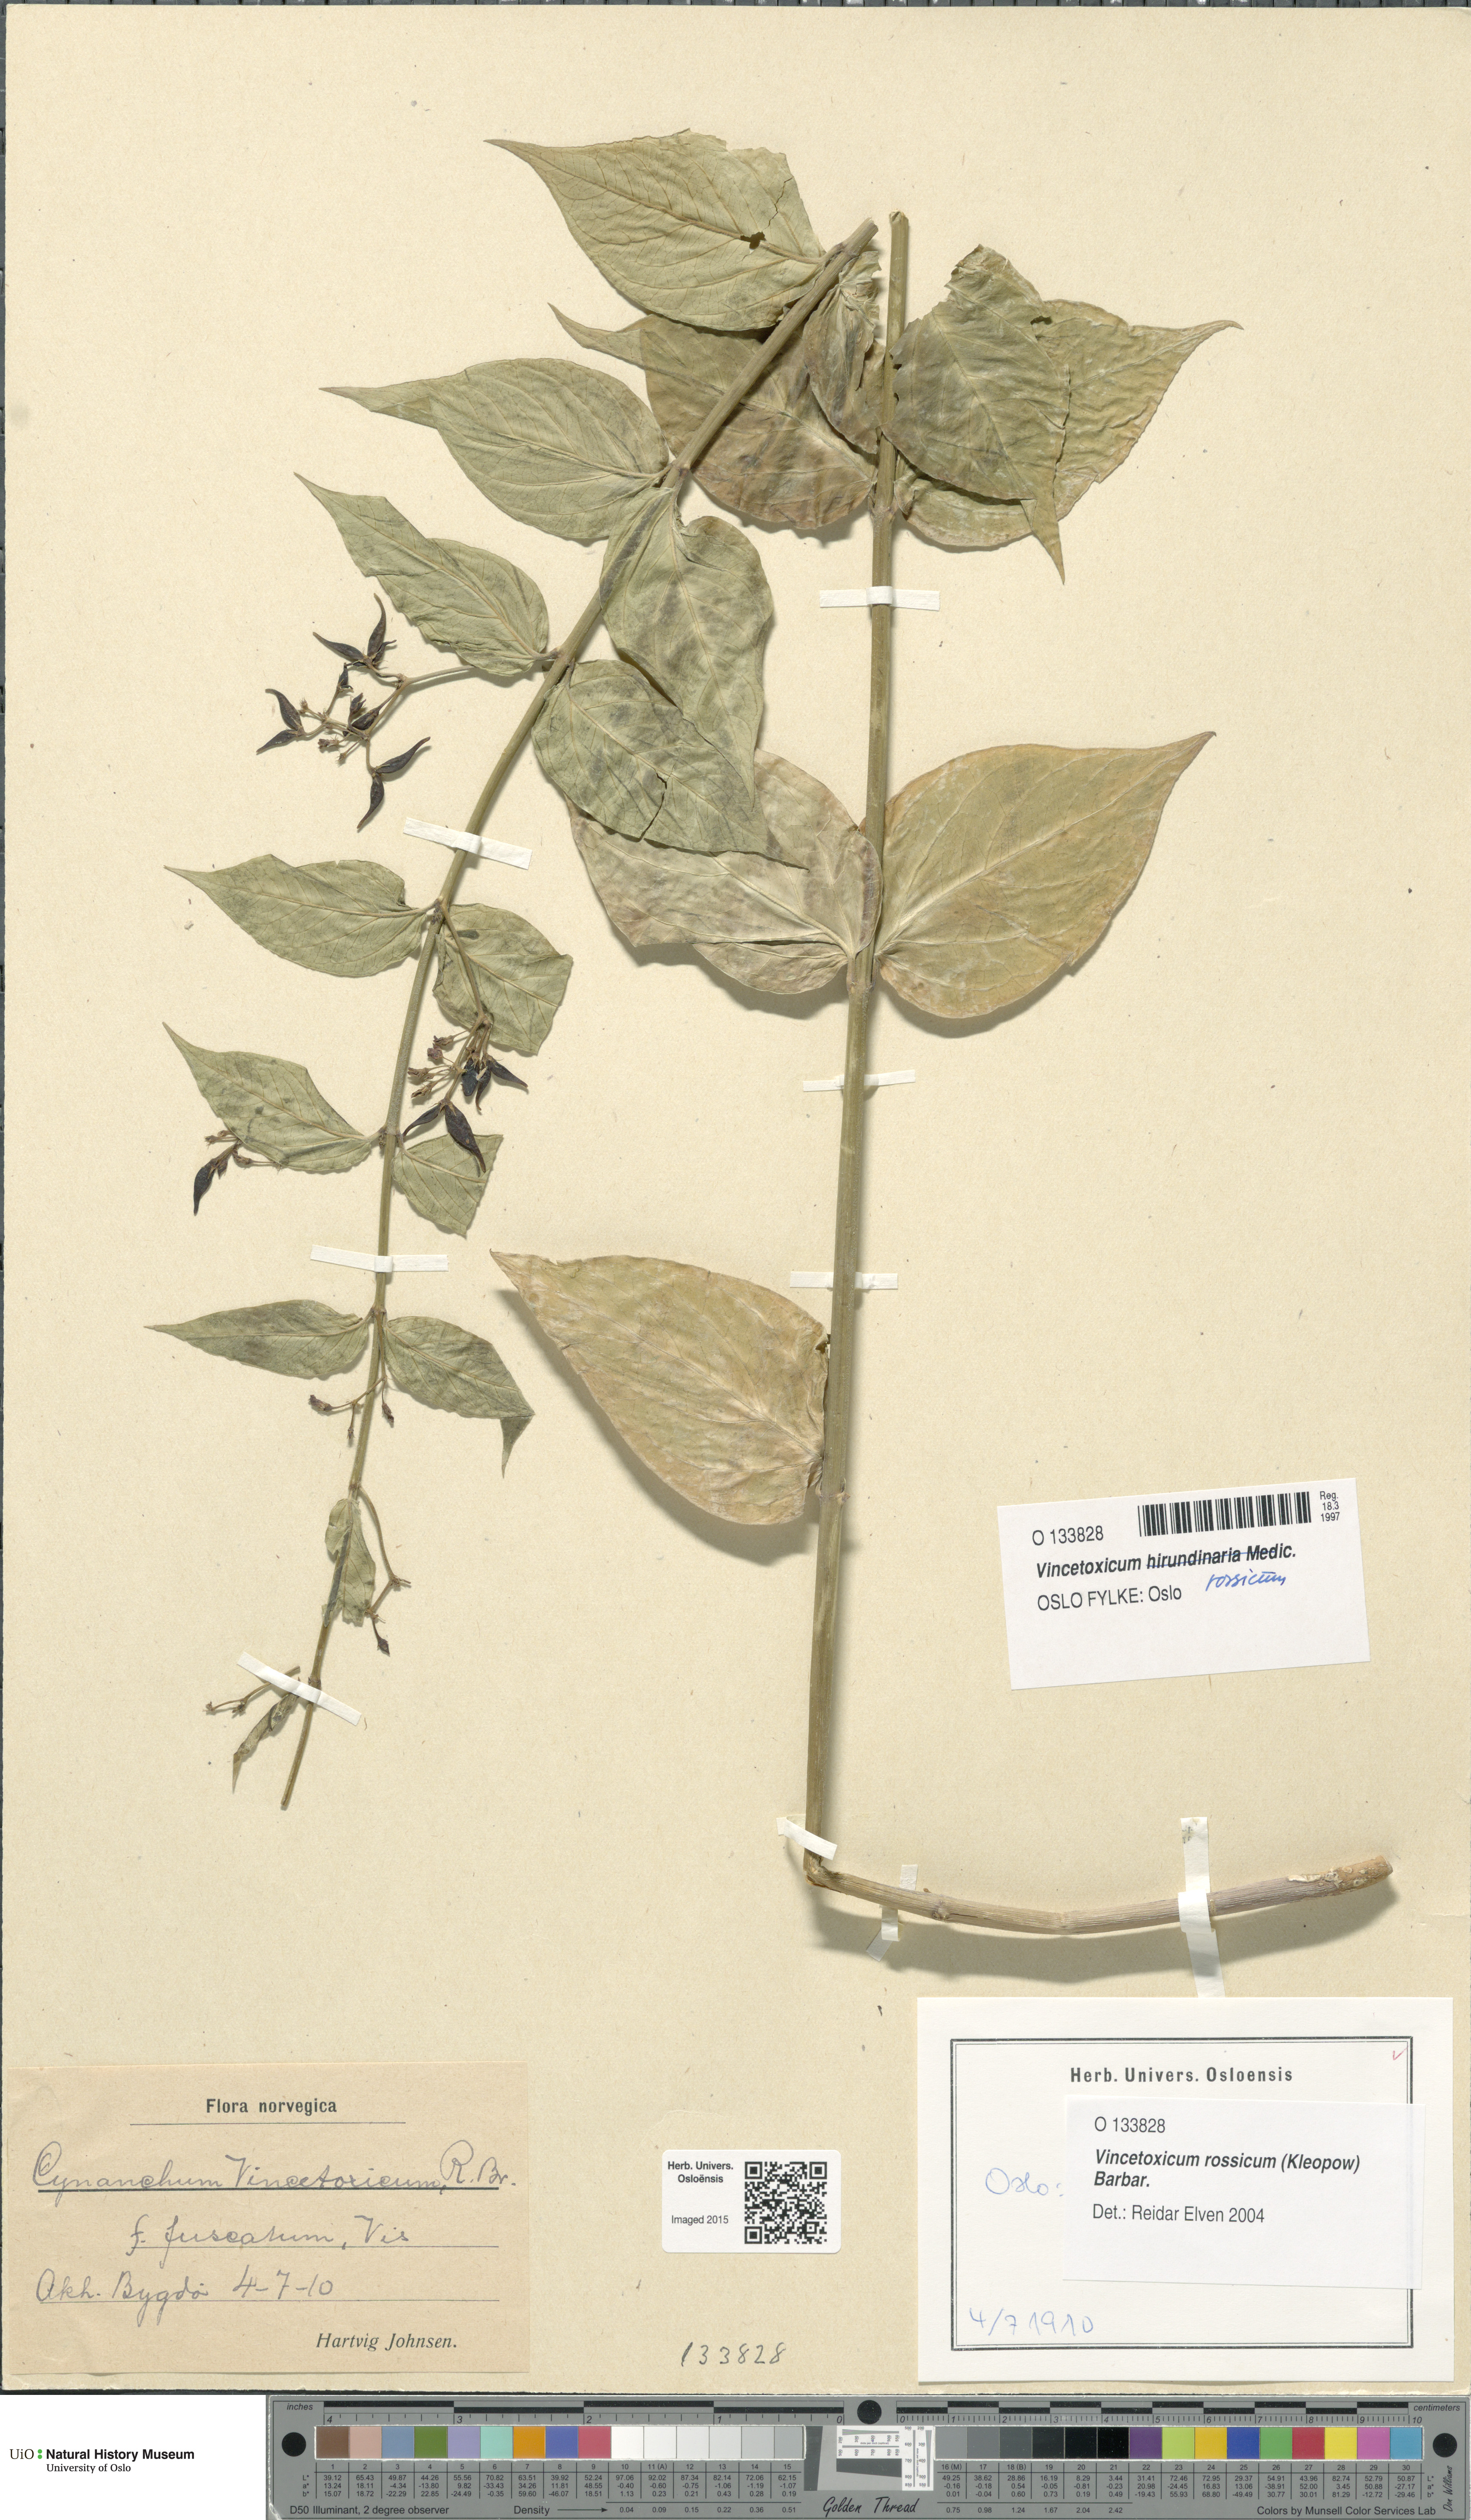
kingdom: Plantae
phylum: Tracheophyta
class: Magnoliopsida
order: Gentianales
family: Apocynaceae
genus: Vincetoxicum
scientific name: Vincetoxicum rossicum
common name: Dog-strangling vine
